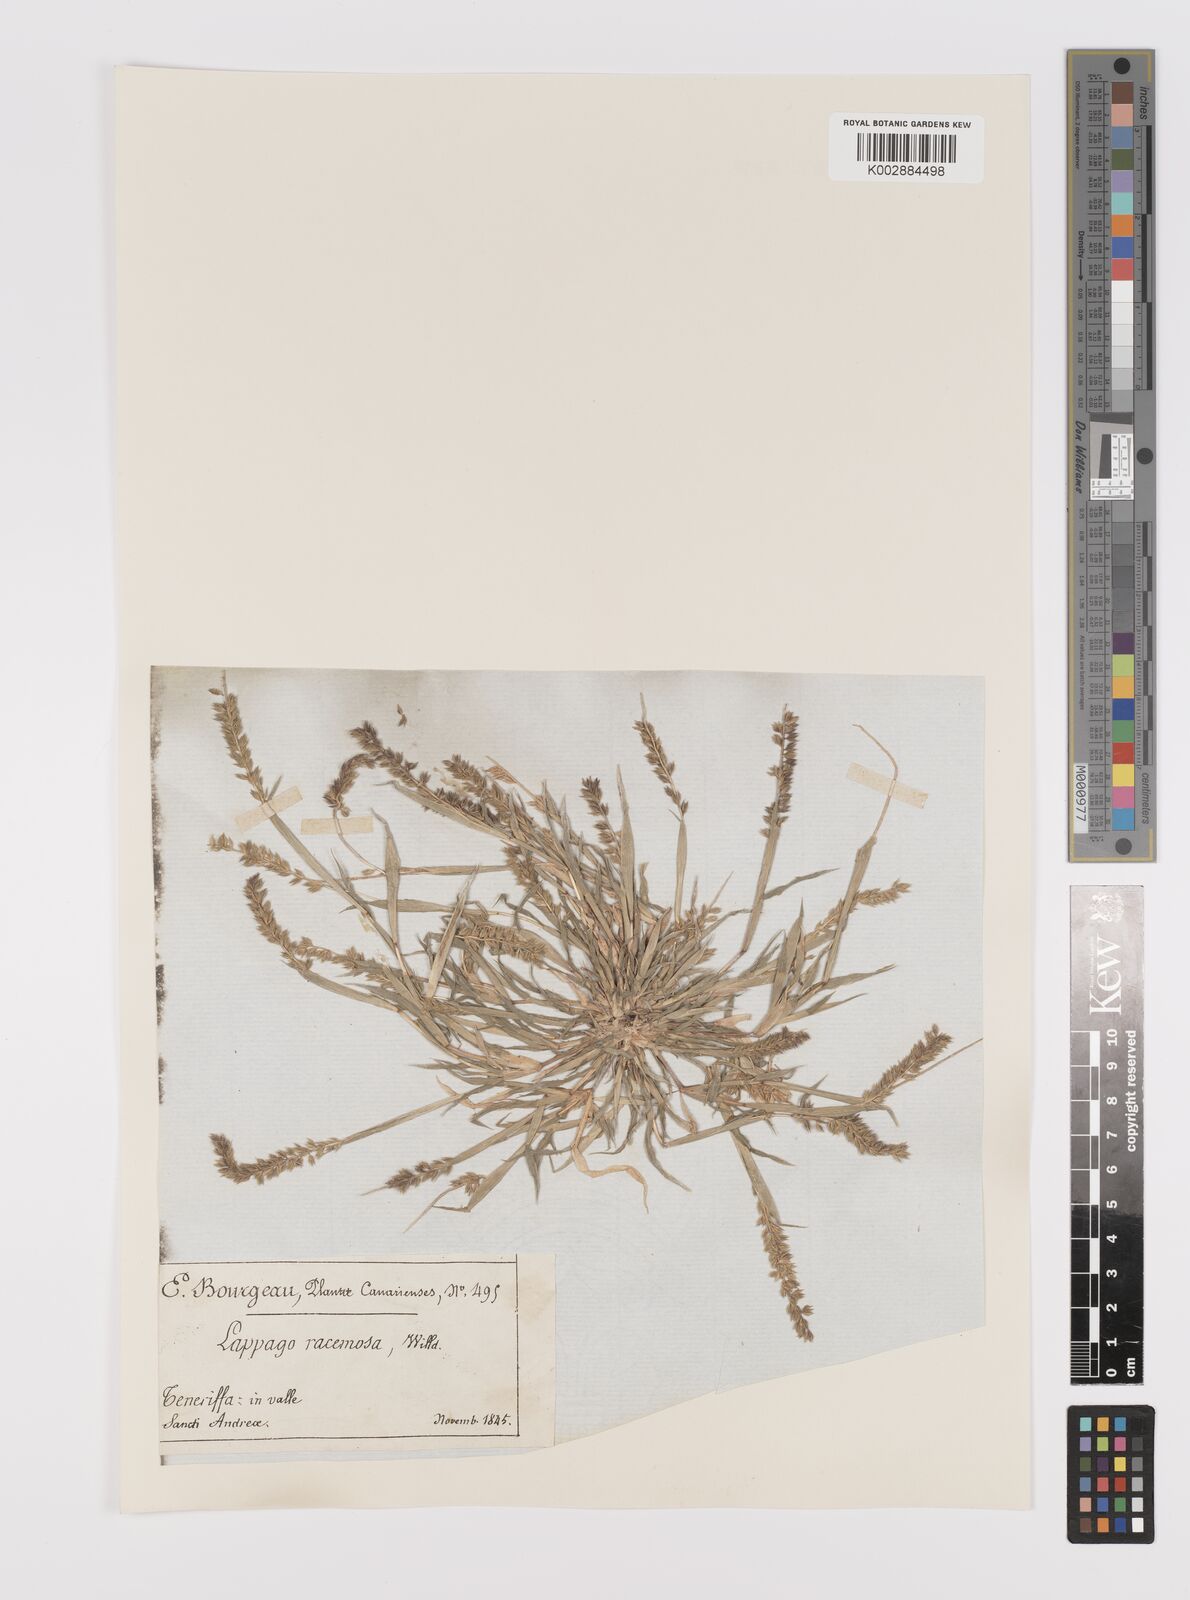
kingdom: Plantae
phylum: Tracheophyta
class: Liliopsida
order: Poales
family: Poaceae
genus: Tragus
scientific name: Tragus racemosus
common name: European bur-grass
